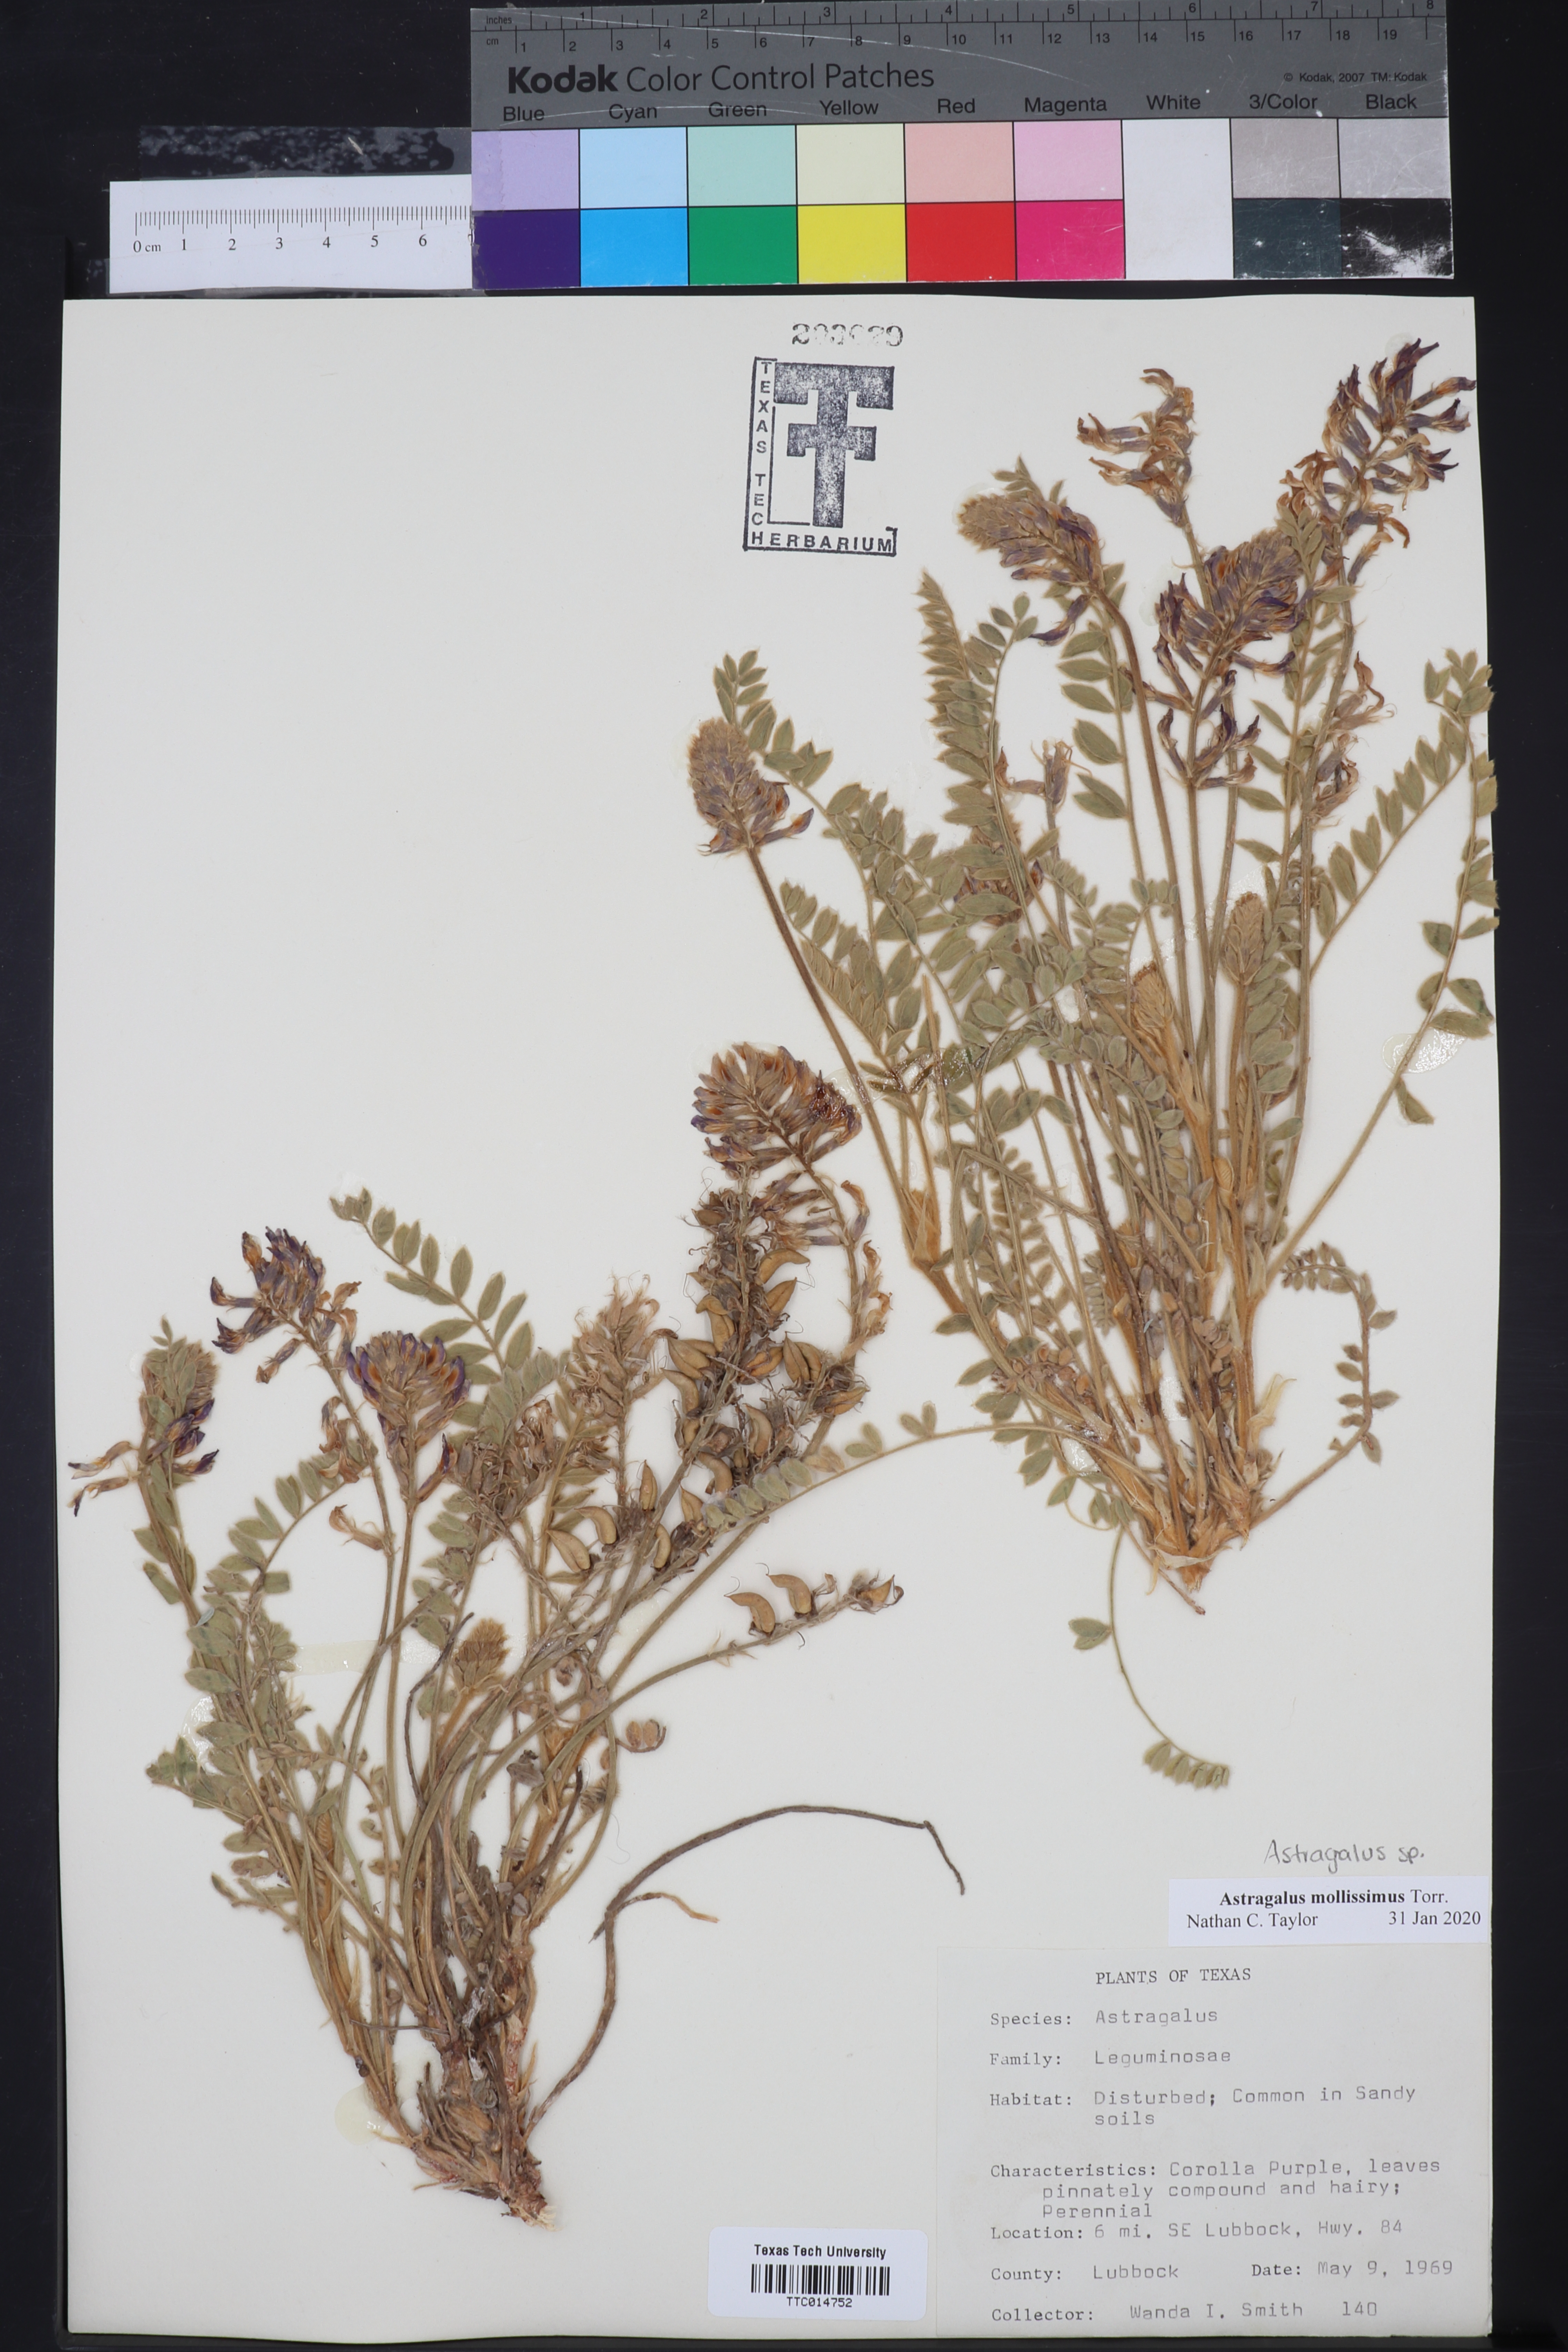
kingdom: Plantae
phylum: Tracheophyta
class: Magnoliopsida
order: Fabales
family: Fabaceae
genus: Astragalus
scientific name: Astragalus mollissimus
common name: Woolly locoweed
